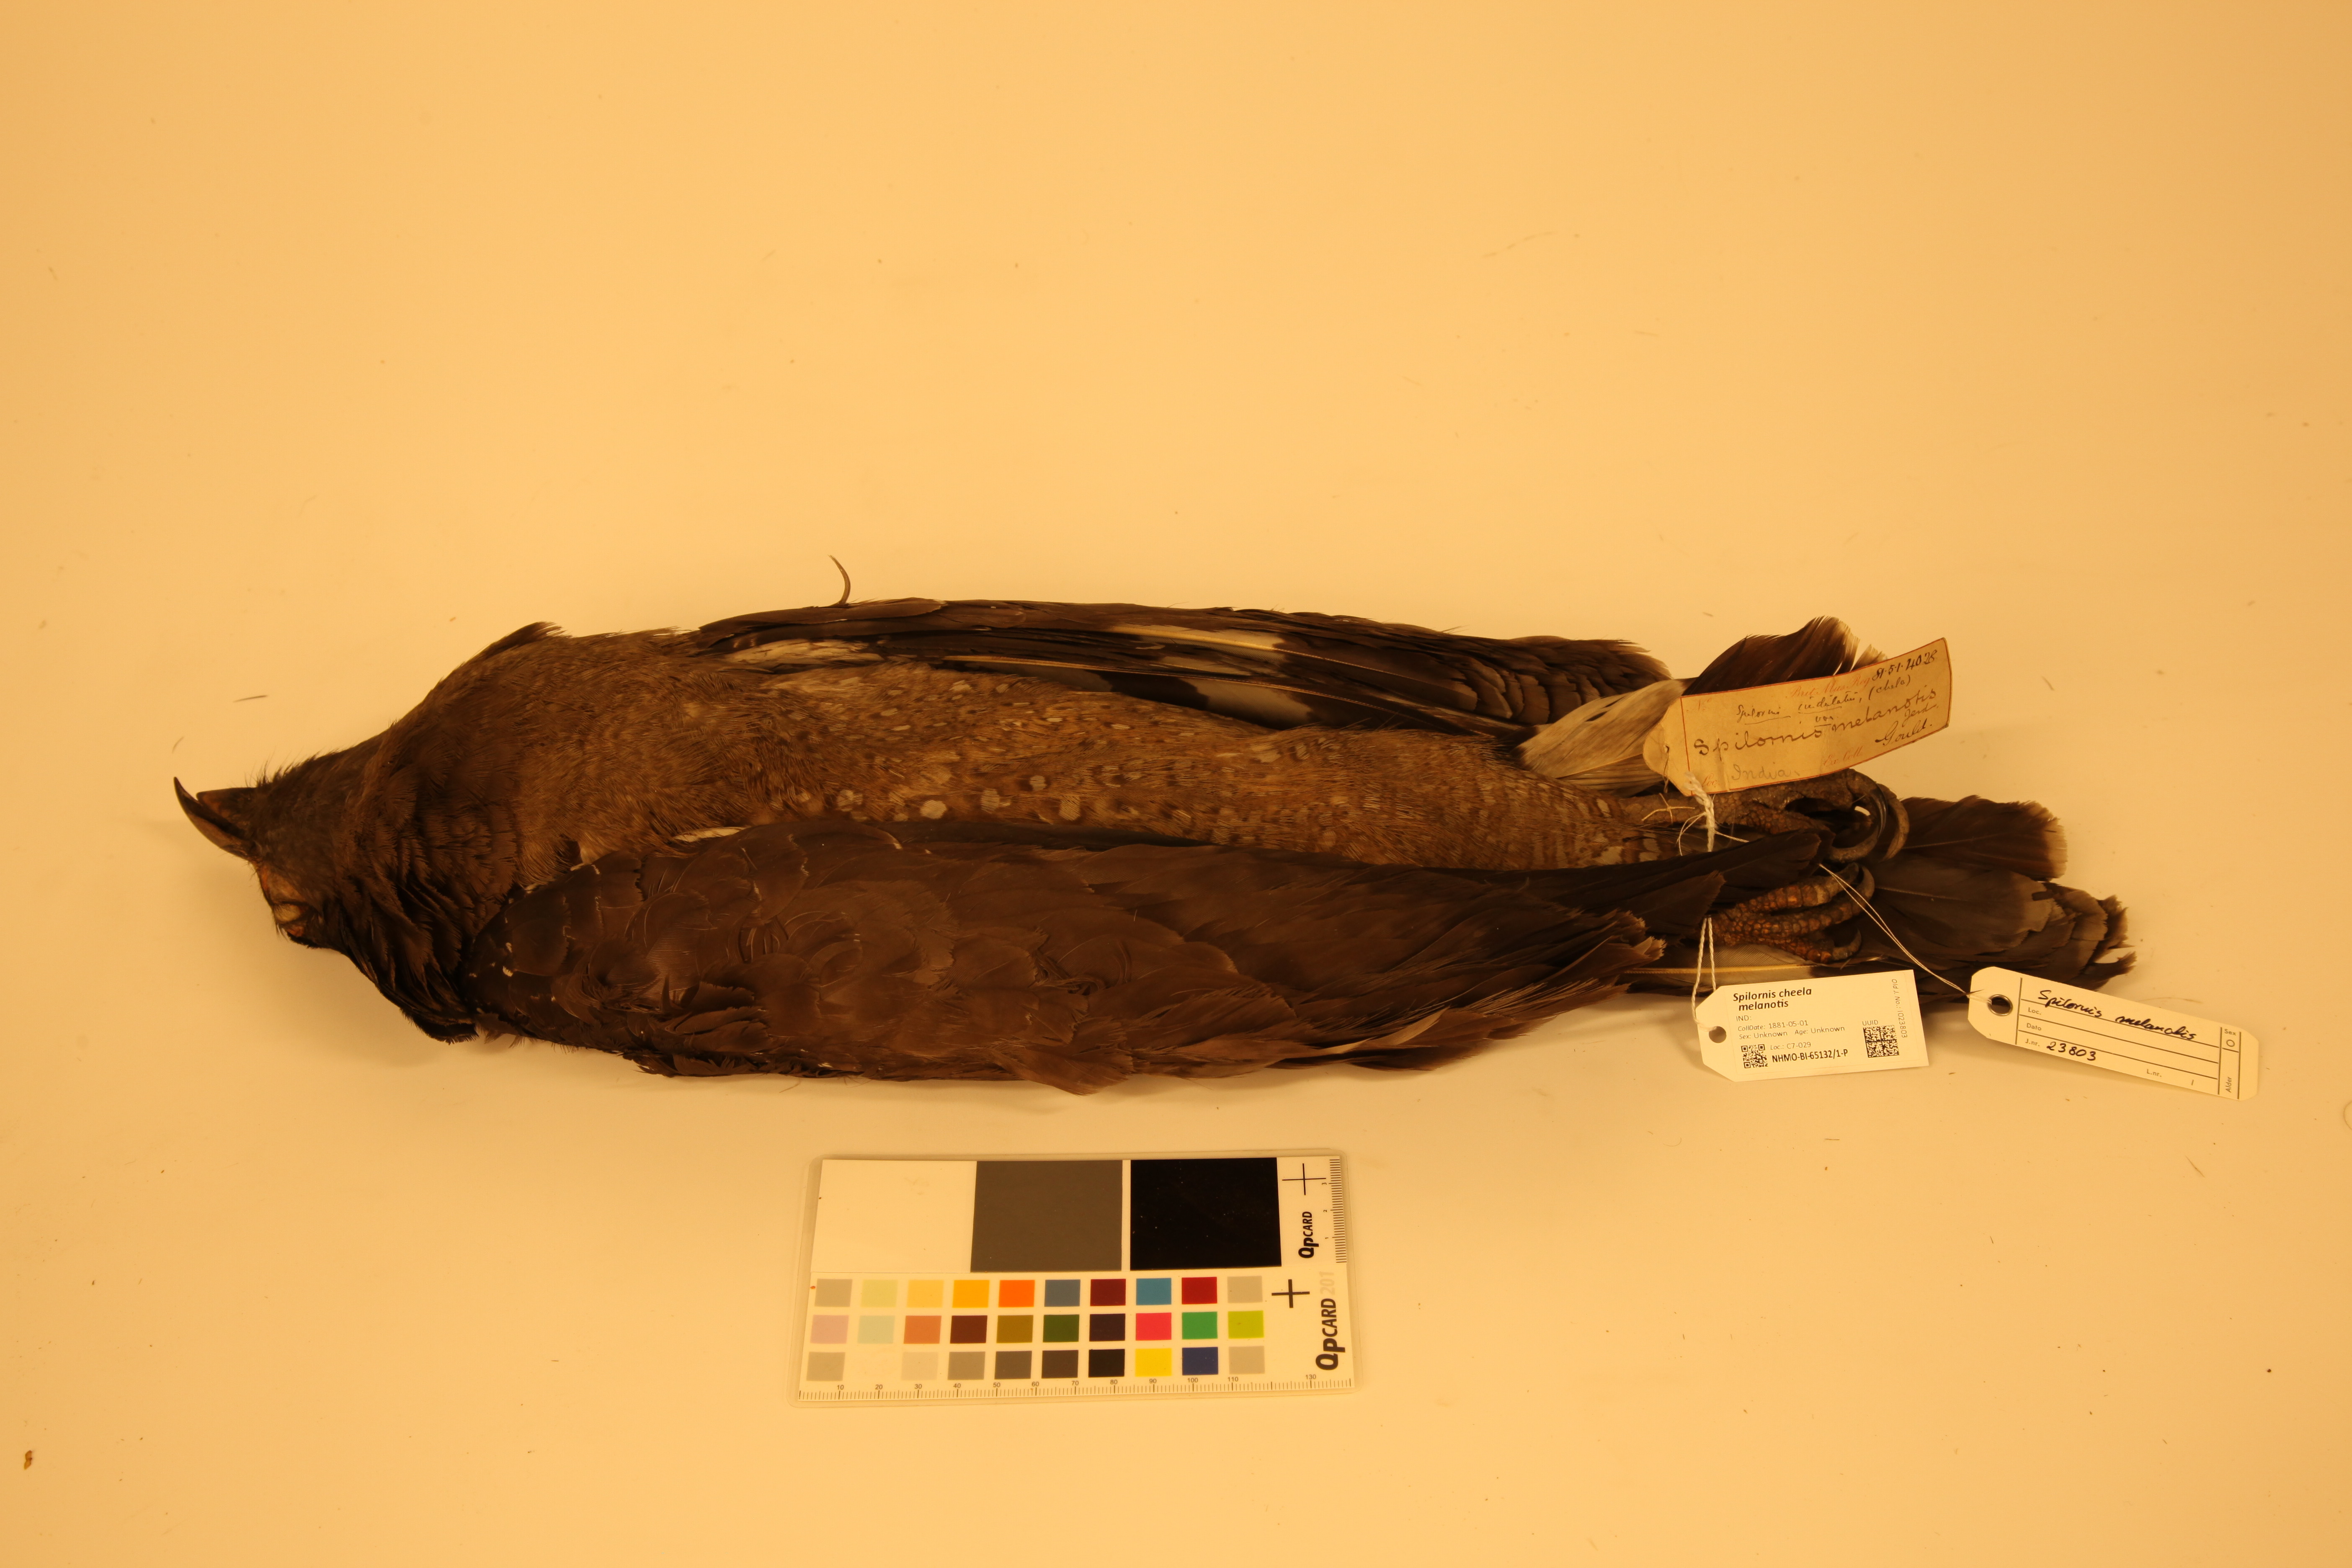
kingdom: Animalia
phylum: Chordata
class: Aves
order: Accipitriformes
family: Accipitridae
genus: Spilornis
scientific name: Spilornis cheela
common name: Crested serpent eagle
